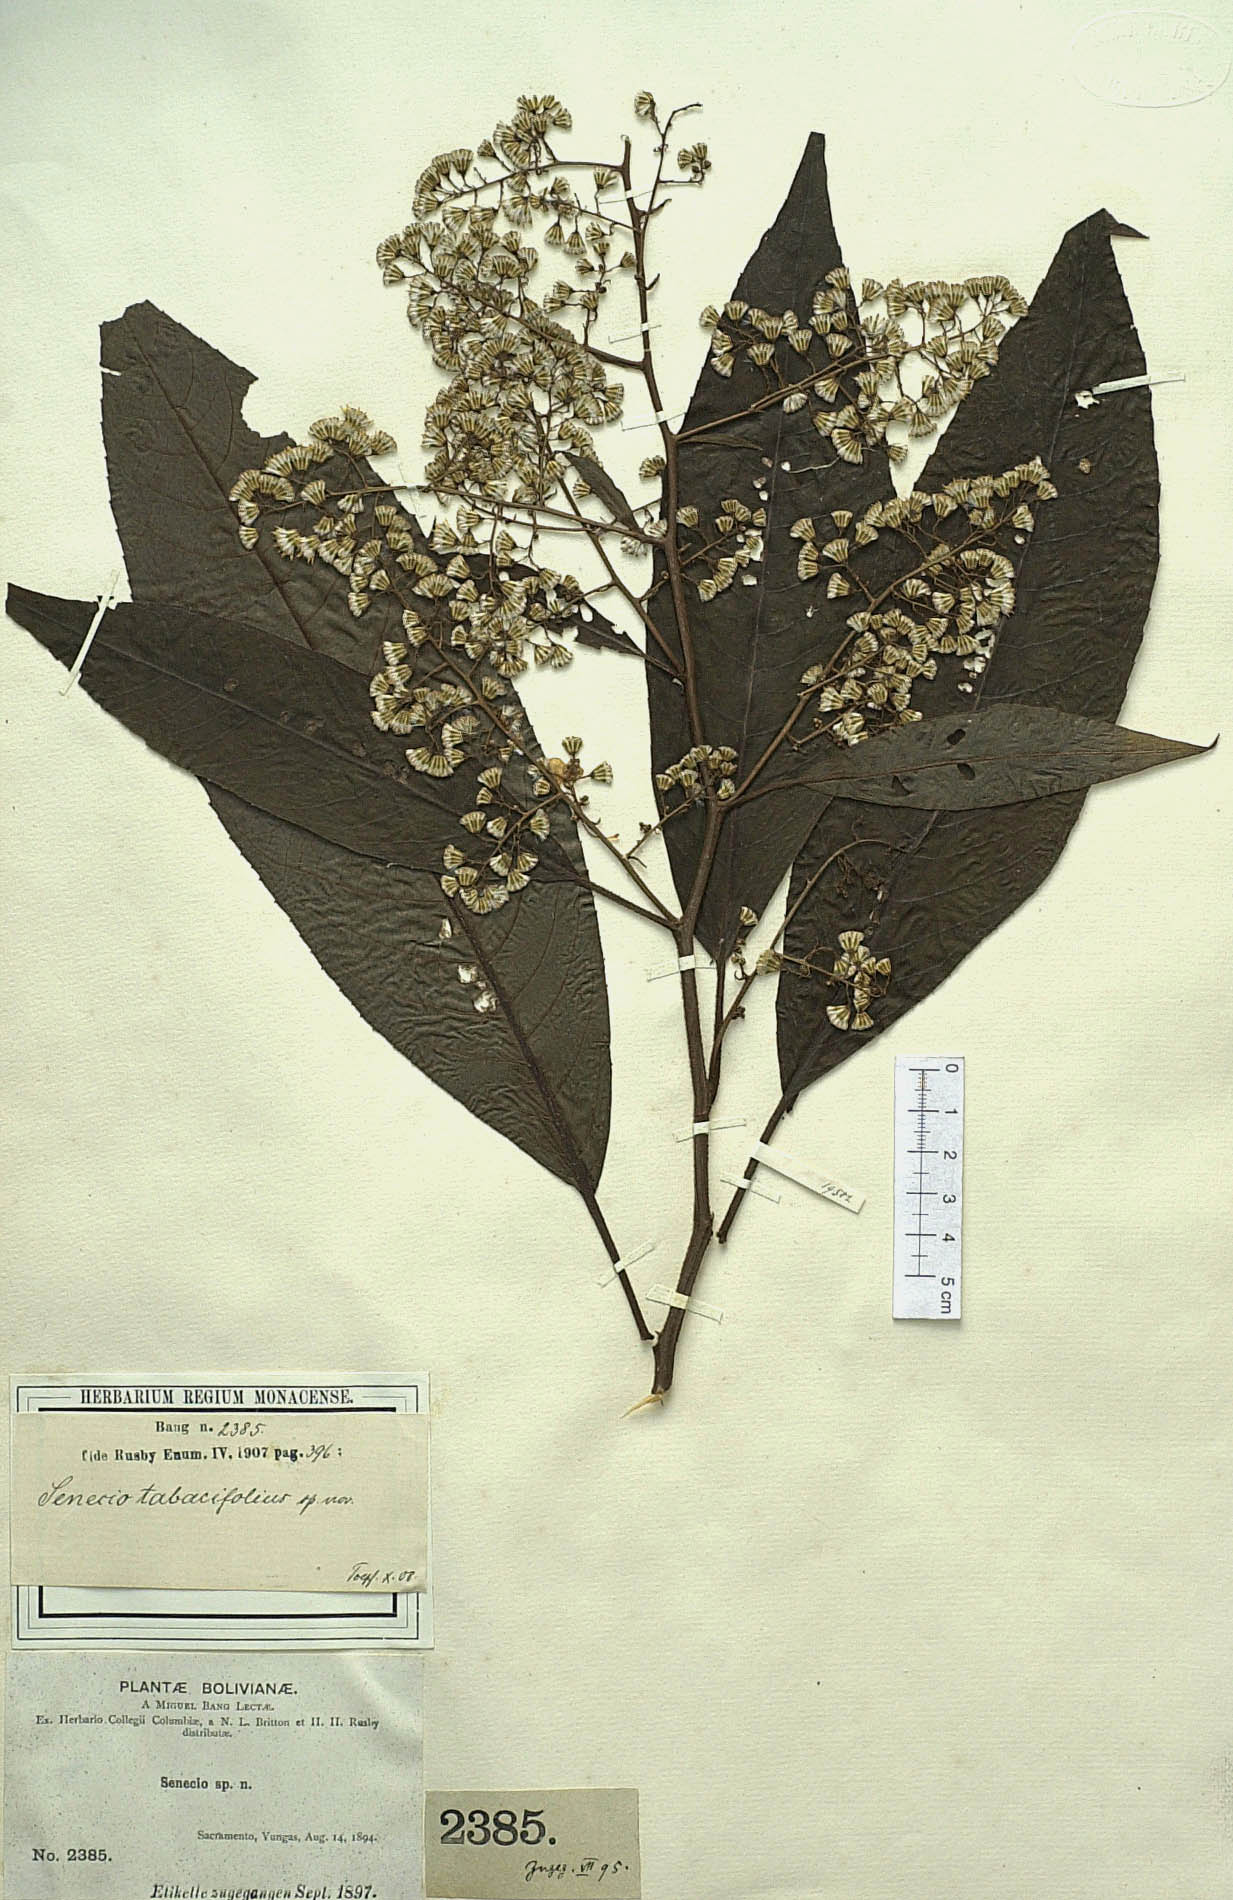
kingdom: Plantae
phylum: Tracheophyta
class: Magnoliopsida
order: Asterales
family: Asteraceae
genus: Dendrophorbium
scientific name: Dendrophorbium tabacifolium
